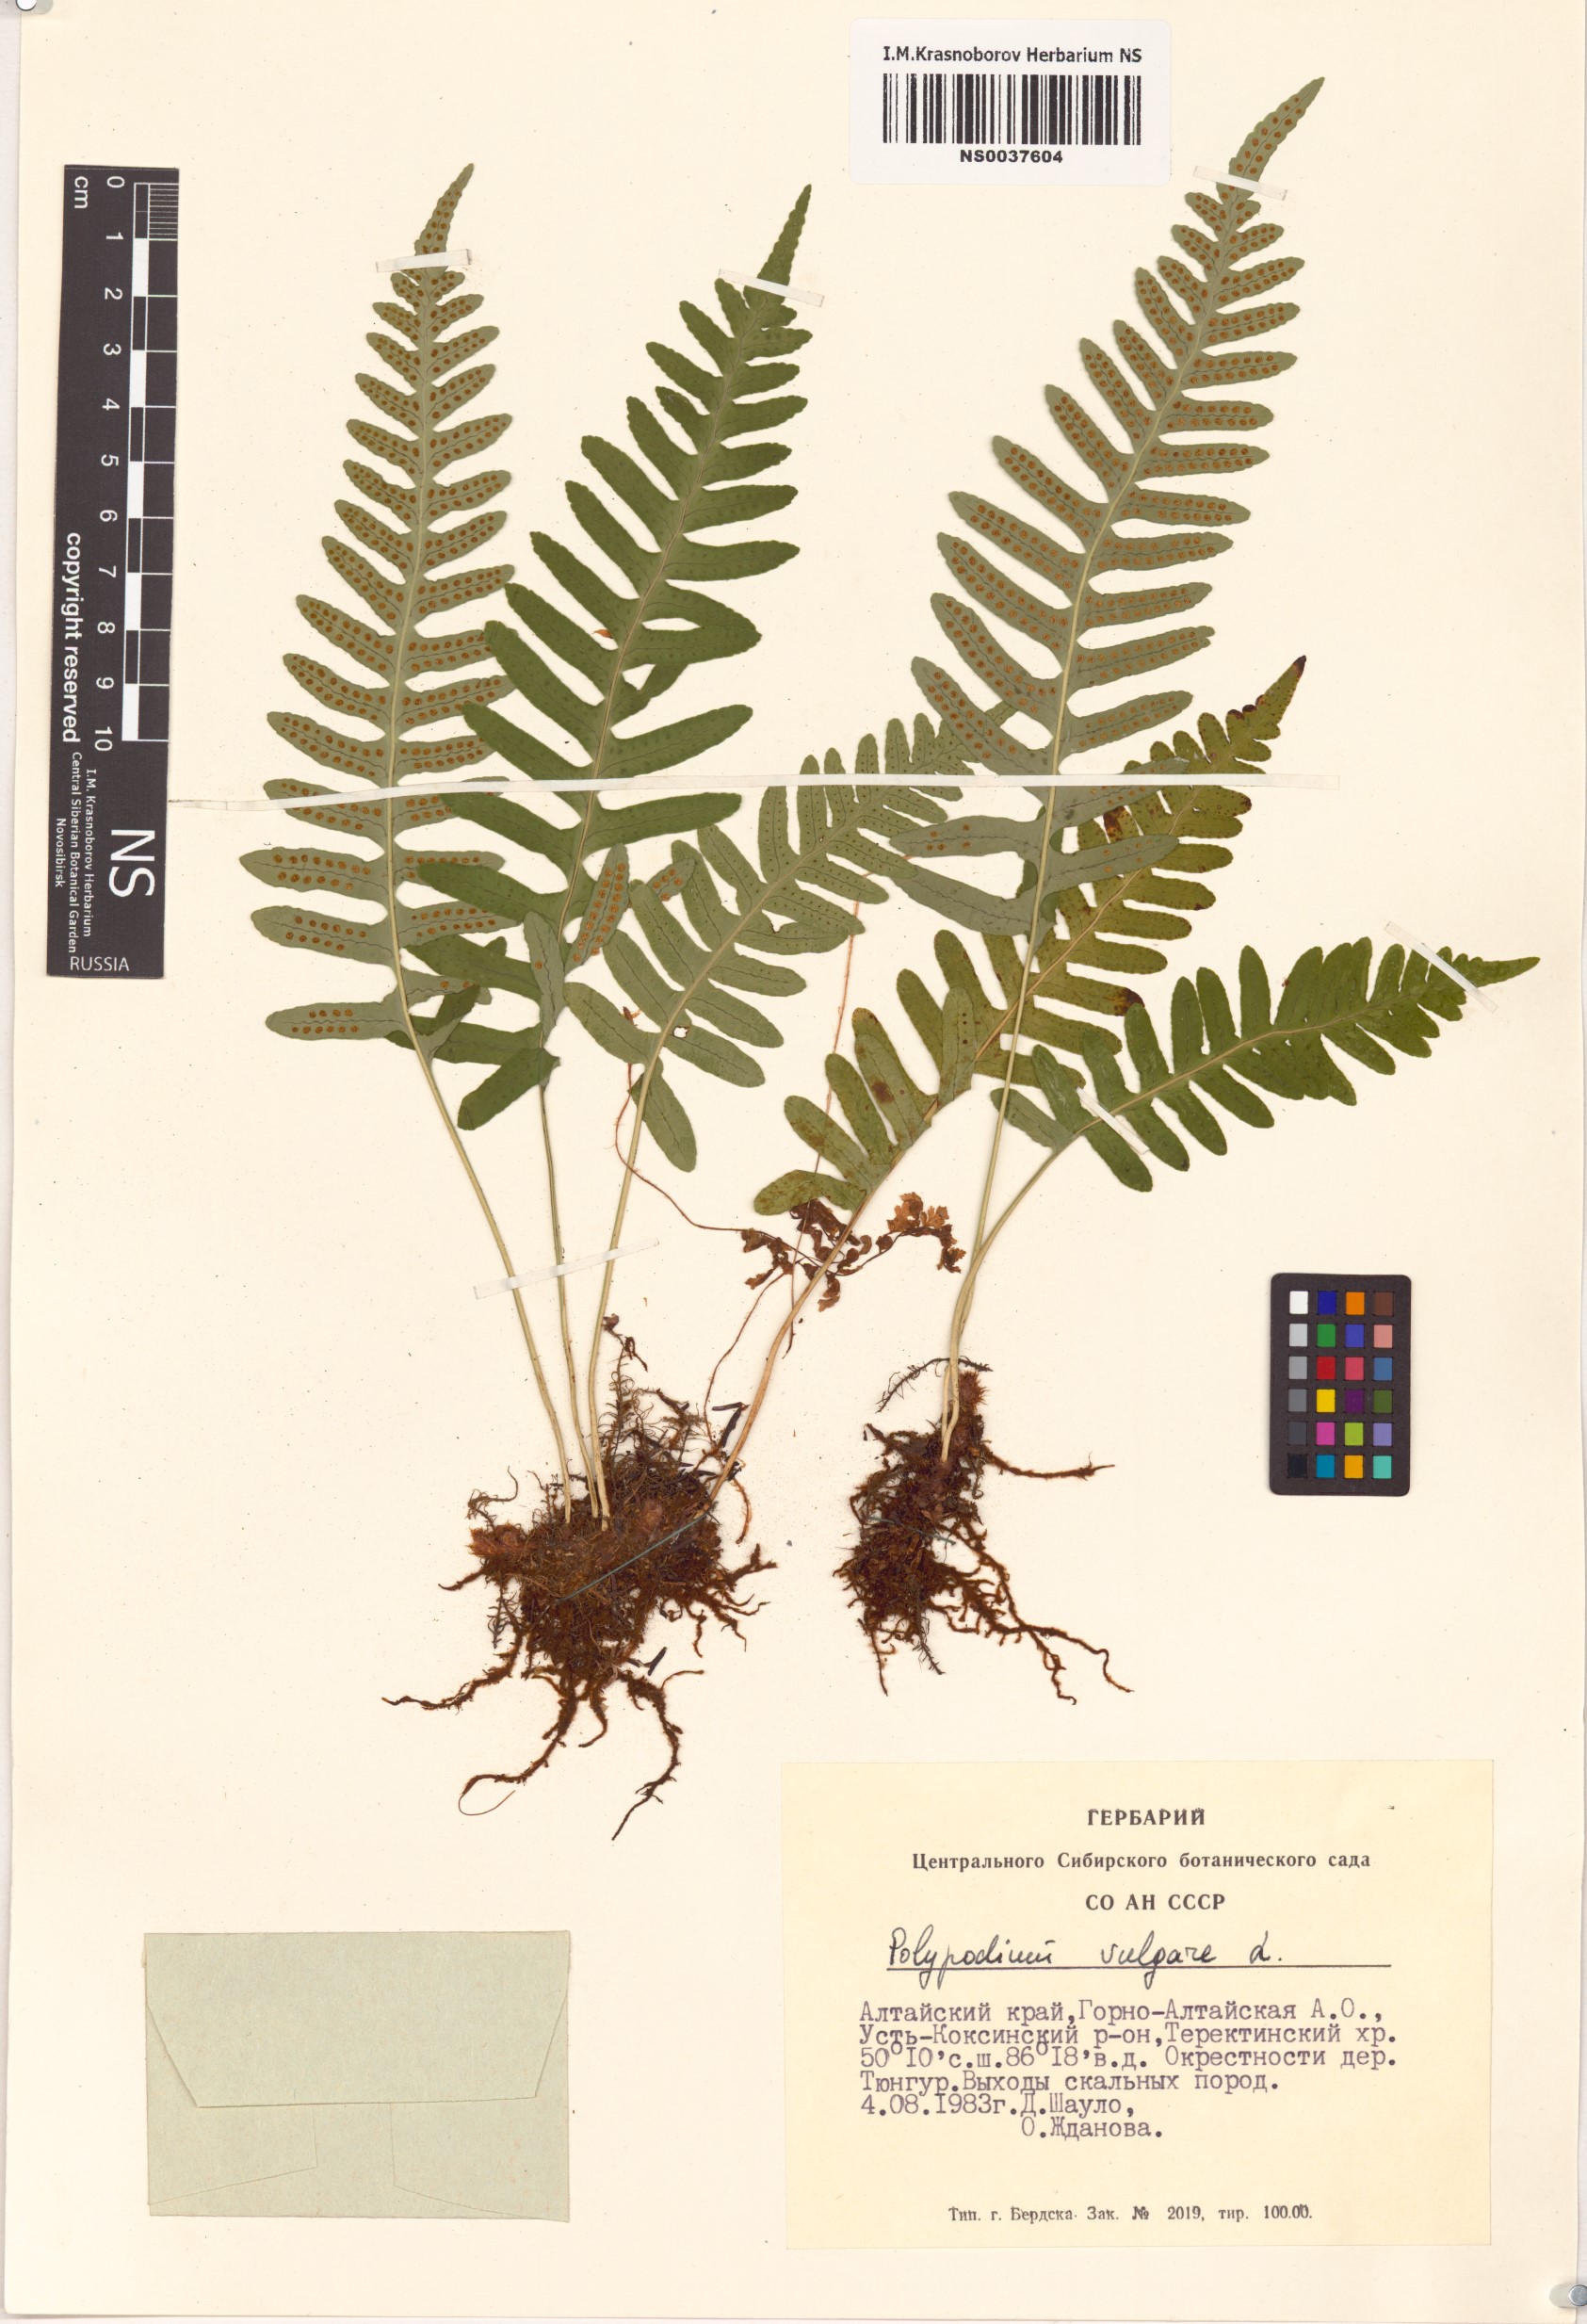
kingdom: Plantae
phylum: Tracheophyta
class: Polypodiopsida
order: Polypodiales
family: Polypodiaceae
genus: Polypodium
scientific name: Polypodium vulgare
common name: Common polypody
